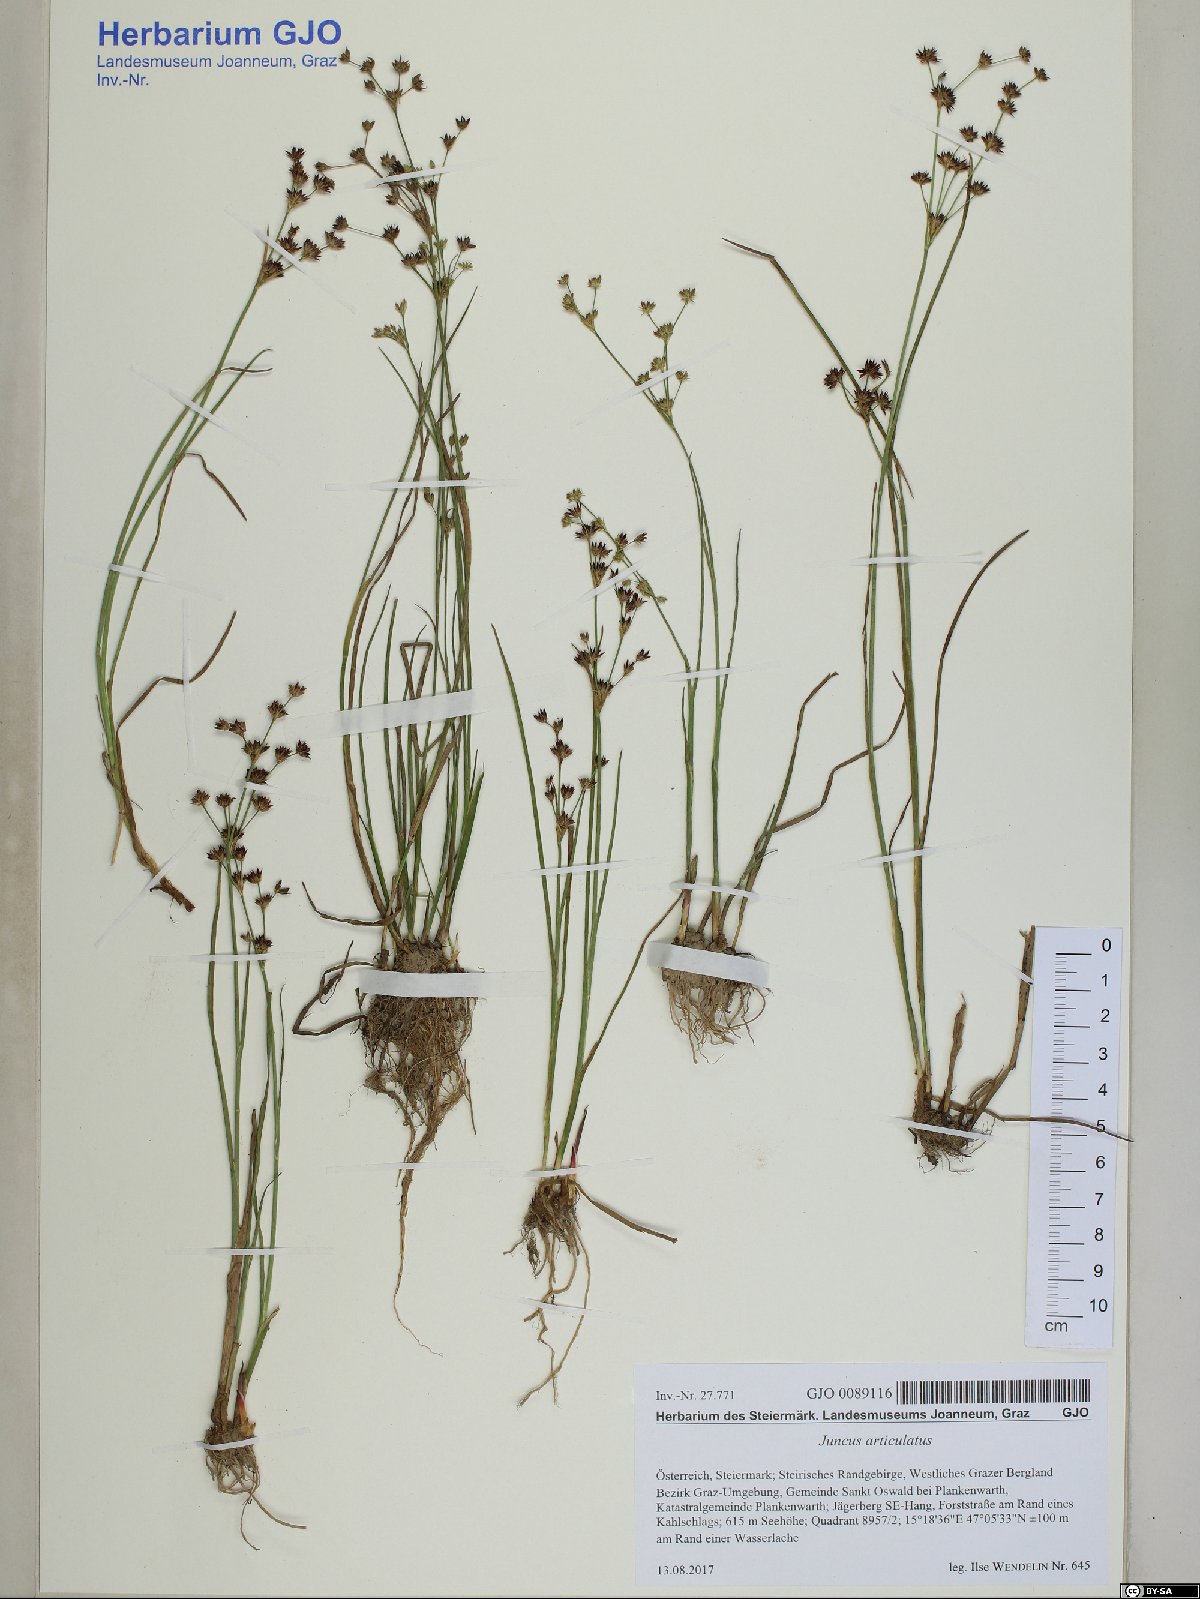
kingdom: Plantae
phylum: Tracheophyta
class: Liliopsida
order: Poales
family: Juncaceae
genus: Juncus
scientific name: Juncus articulatus
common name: Jointed rush
